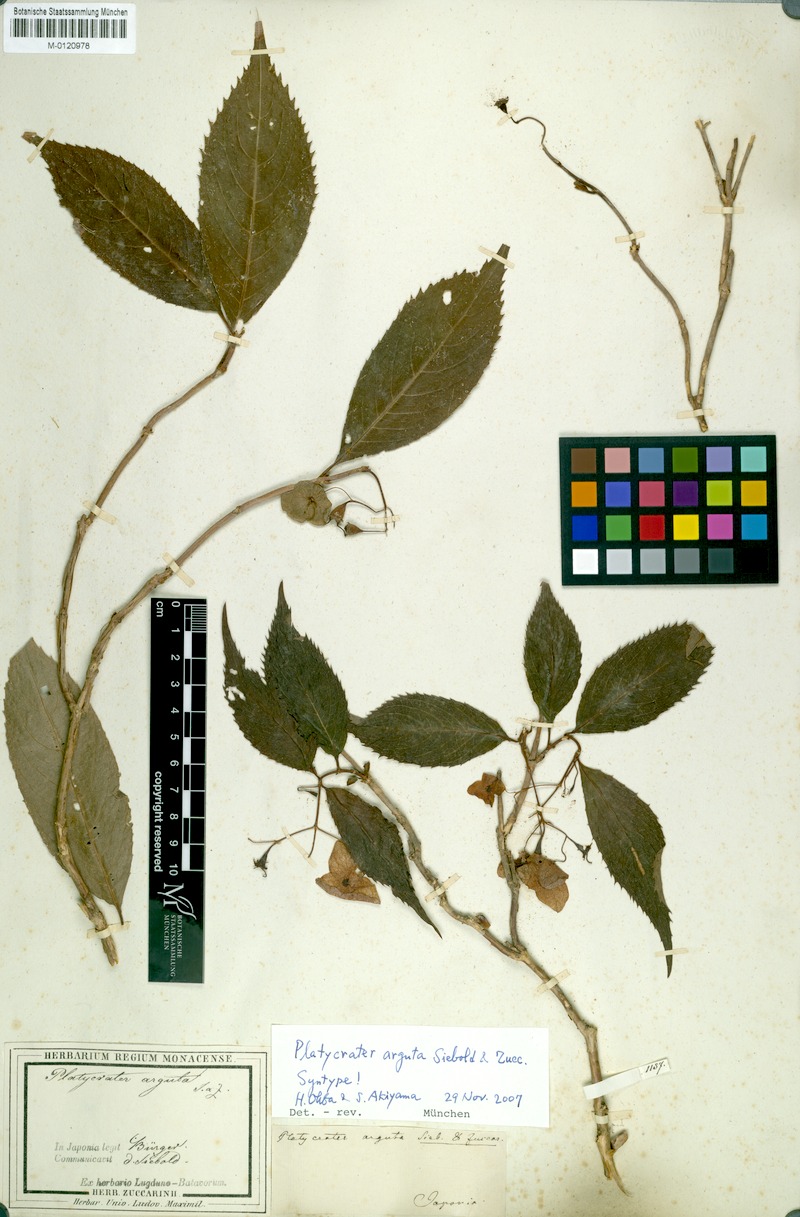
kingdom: Plantae
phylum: Tracheophyta
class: Magnoliopsida
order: Cornales
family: Hydrangeaceae
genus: Hydrangea
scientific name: Hydrangea platyarguta
